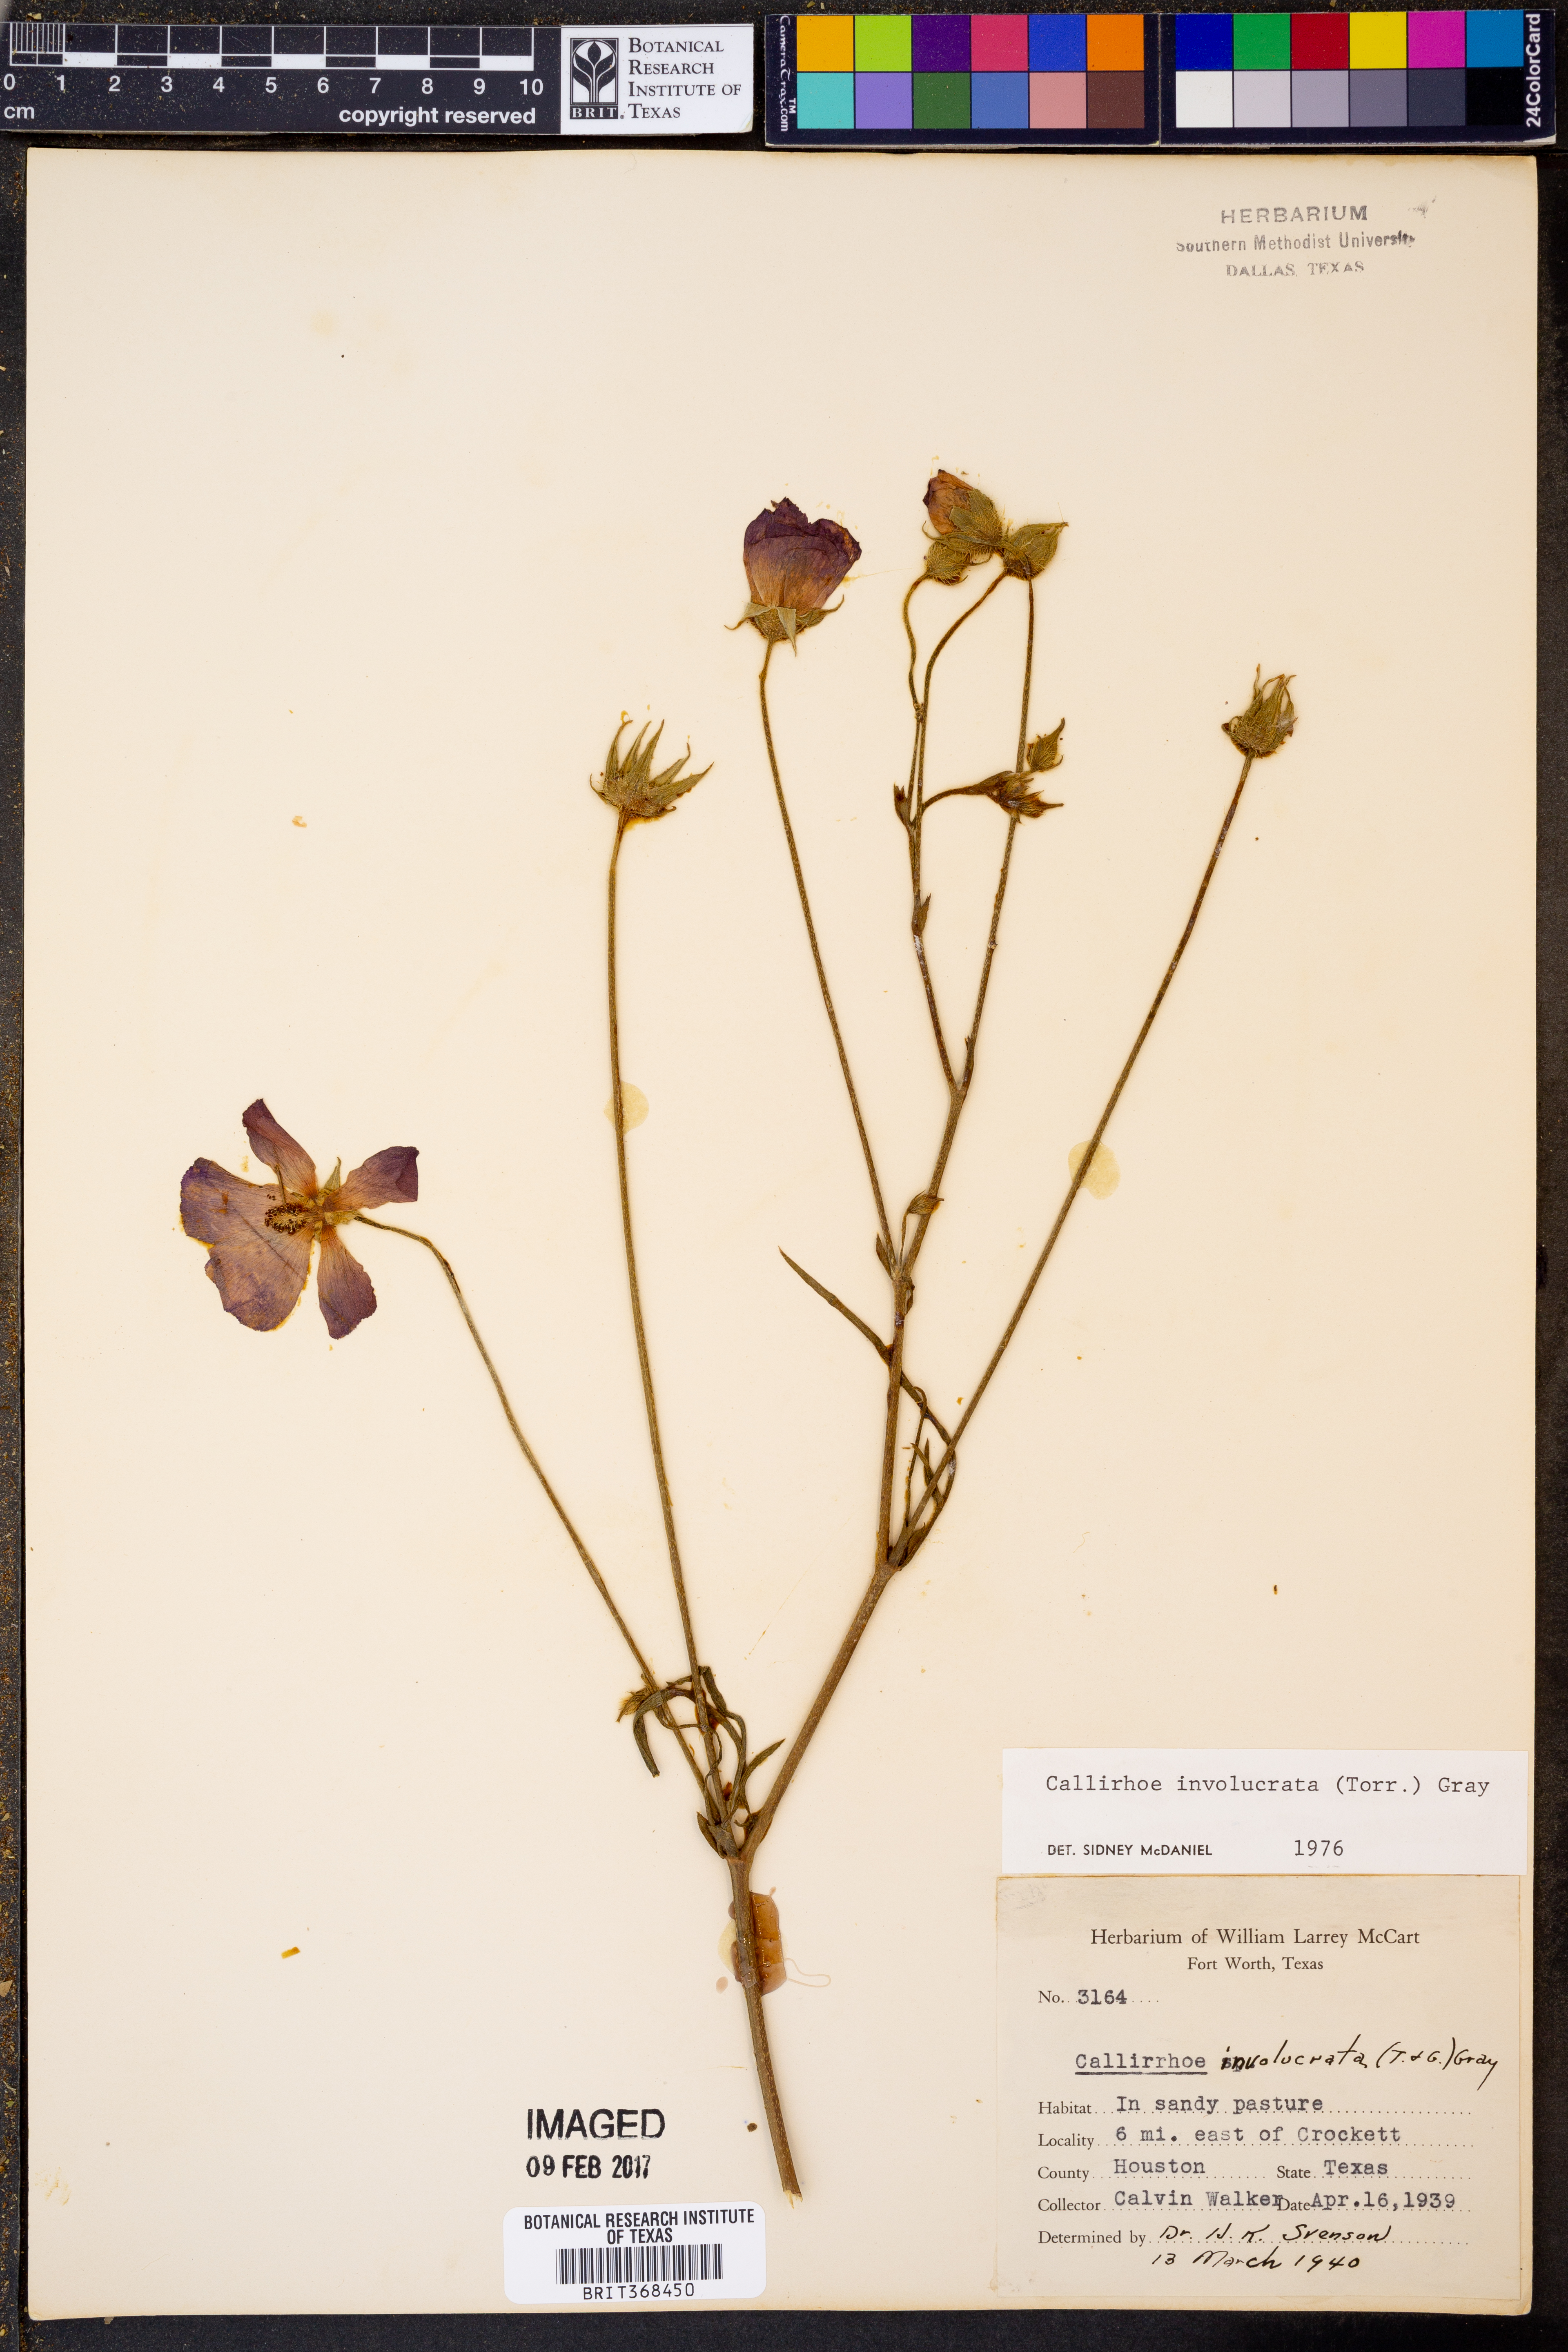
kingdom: Plantae
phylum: Tracheophyta
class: Magnoliopsida
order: Malvales
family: Malvaceae
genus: Callirhoe
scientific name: Callirhoe involucrata
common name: Purple poppy-mallow
